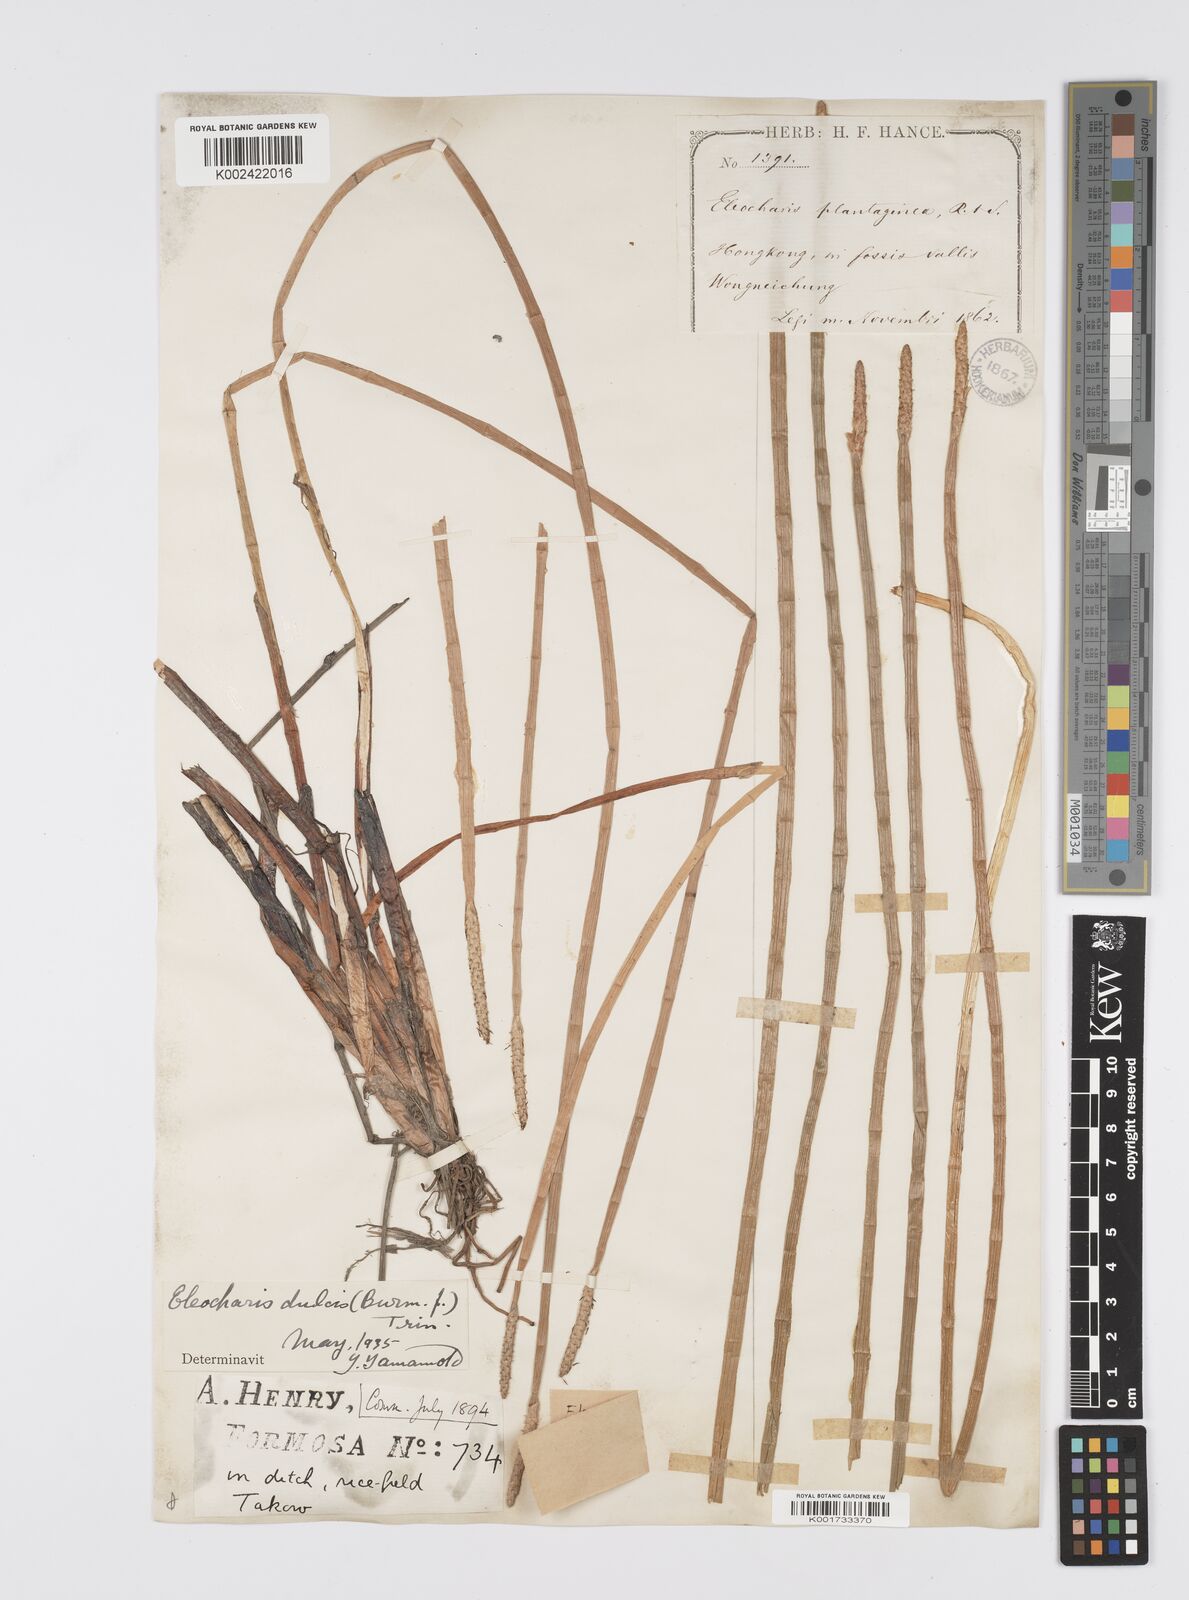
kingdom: Plantae
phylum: Tracheophyta
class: Liliopsida
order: Poales
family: Cyperaceae
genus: Eleocharis
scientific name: Eleocharis dulcis
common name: Chinese water chestnut
